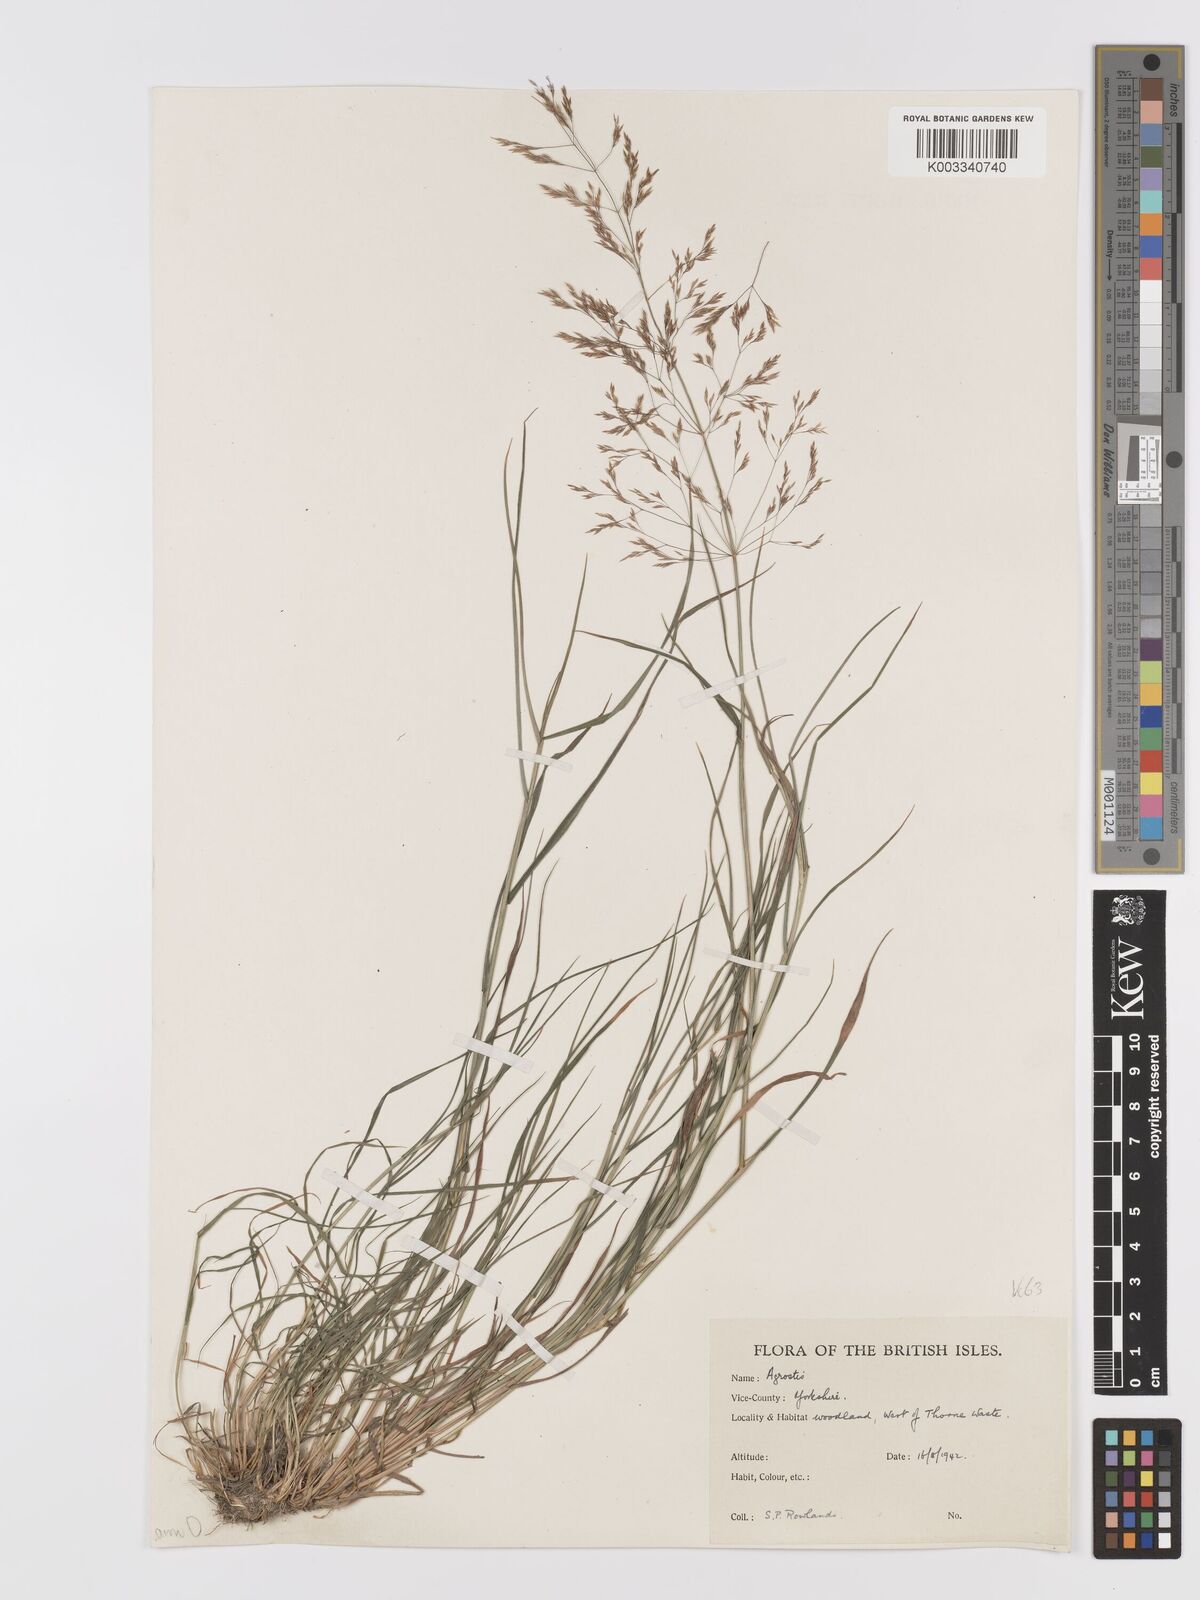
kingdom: Plantae
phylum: Tracheophyta
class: Liliopsida
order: Poales
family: Poaceae
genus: Agrostis
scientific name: Agrostis capillaris
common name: Colonial bentgrass
